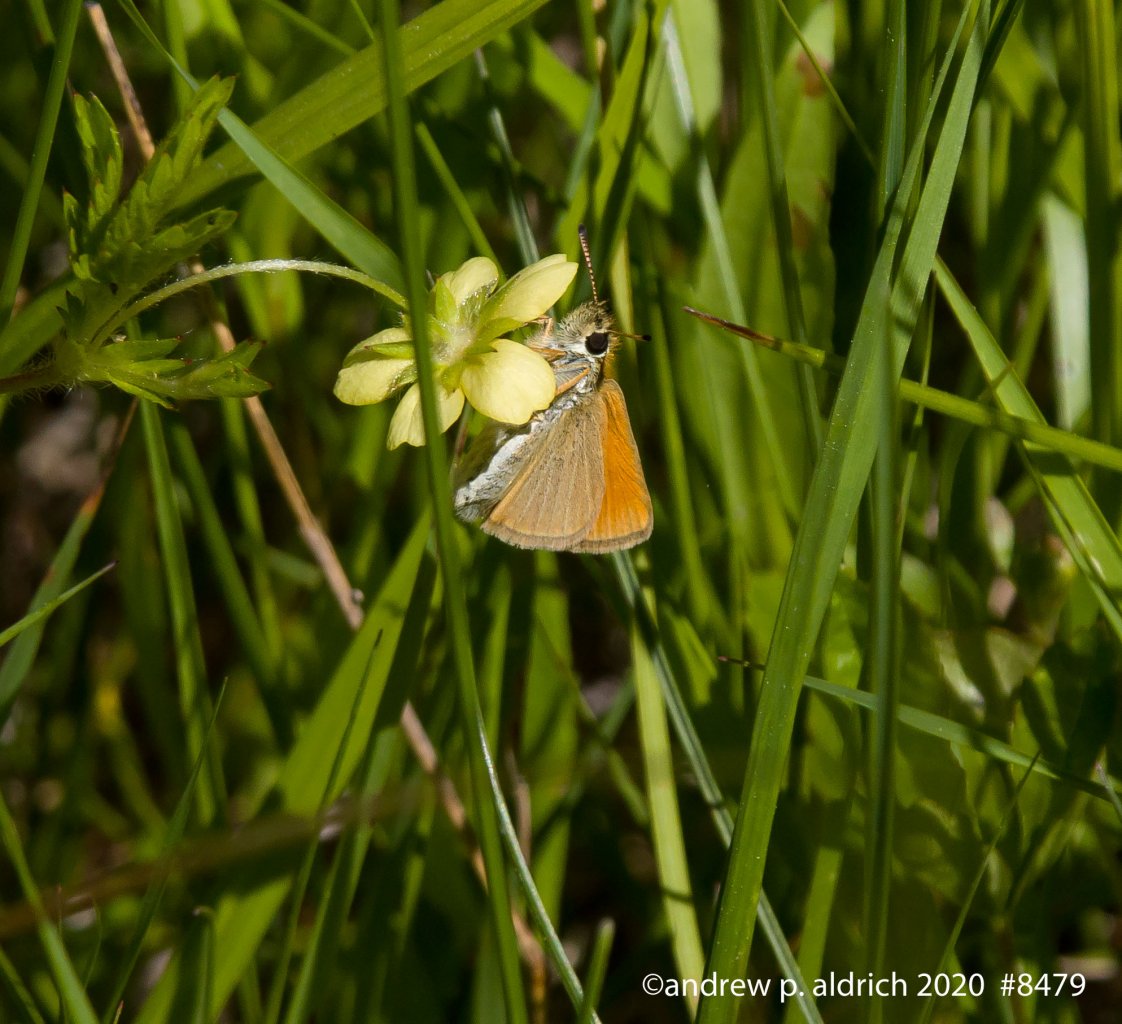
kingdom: Animalia
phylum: Arthropoda
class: Insecta
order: Lepidoptera
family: Hesperiidae
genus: Thymelicus
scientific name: Thymelicus lineola
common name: European Skipper
